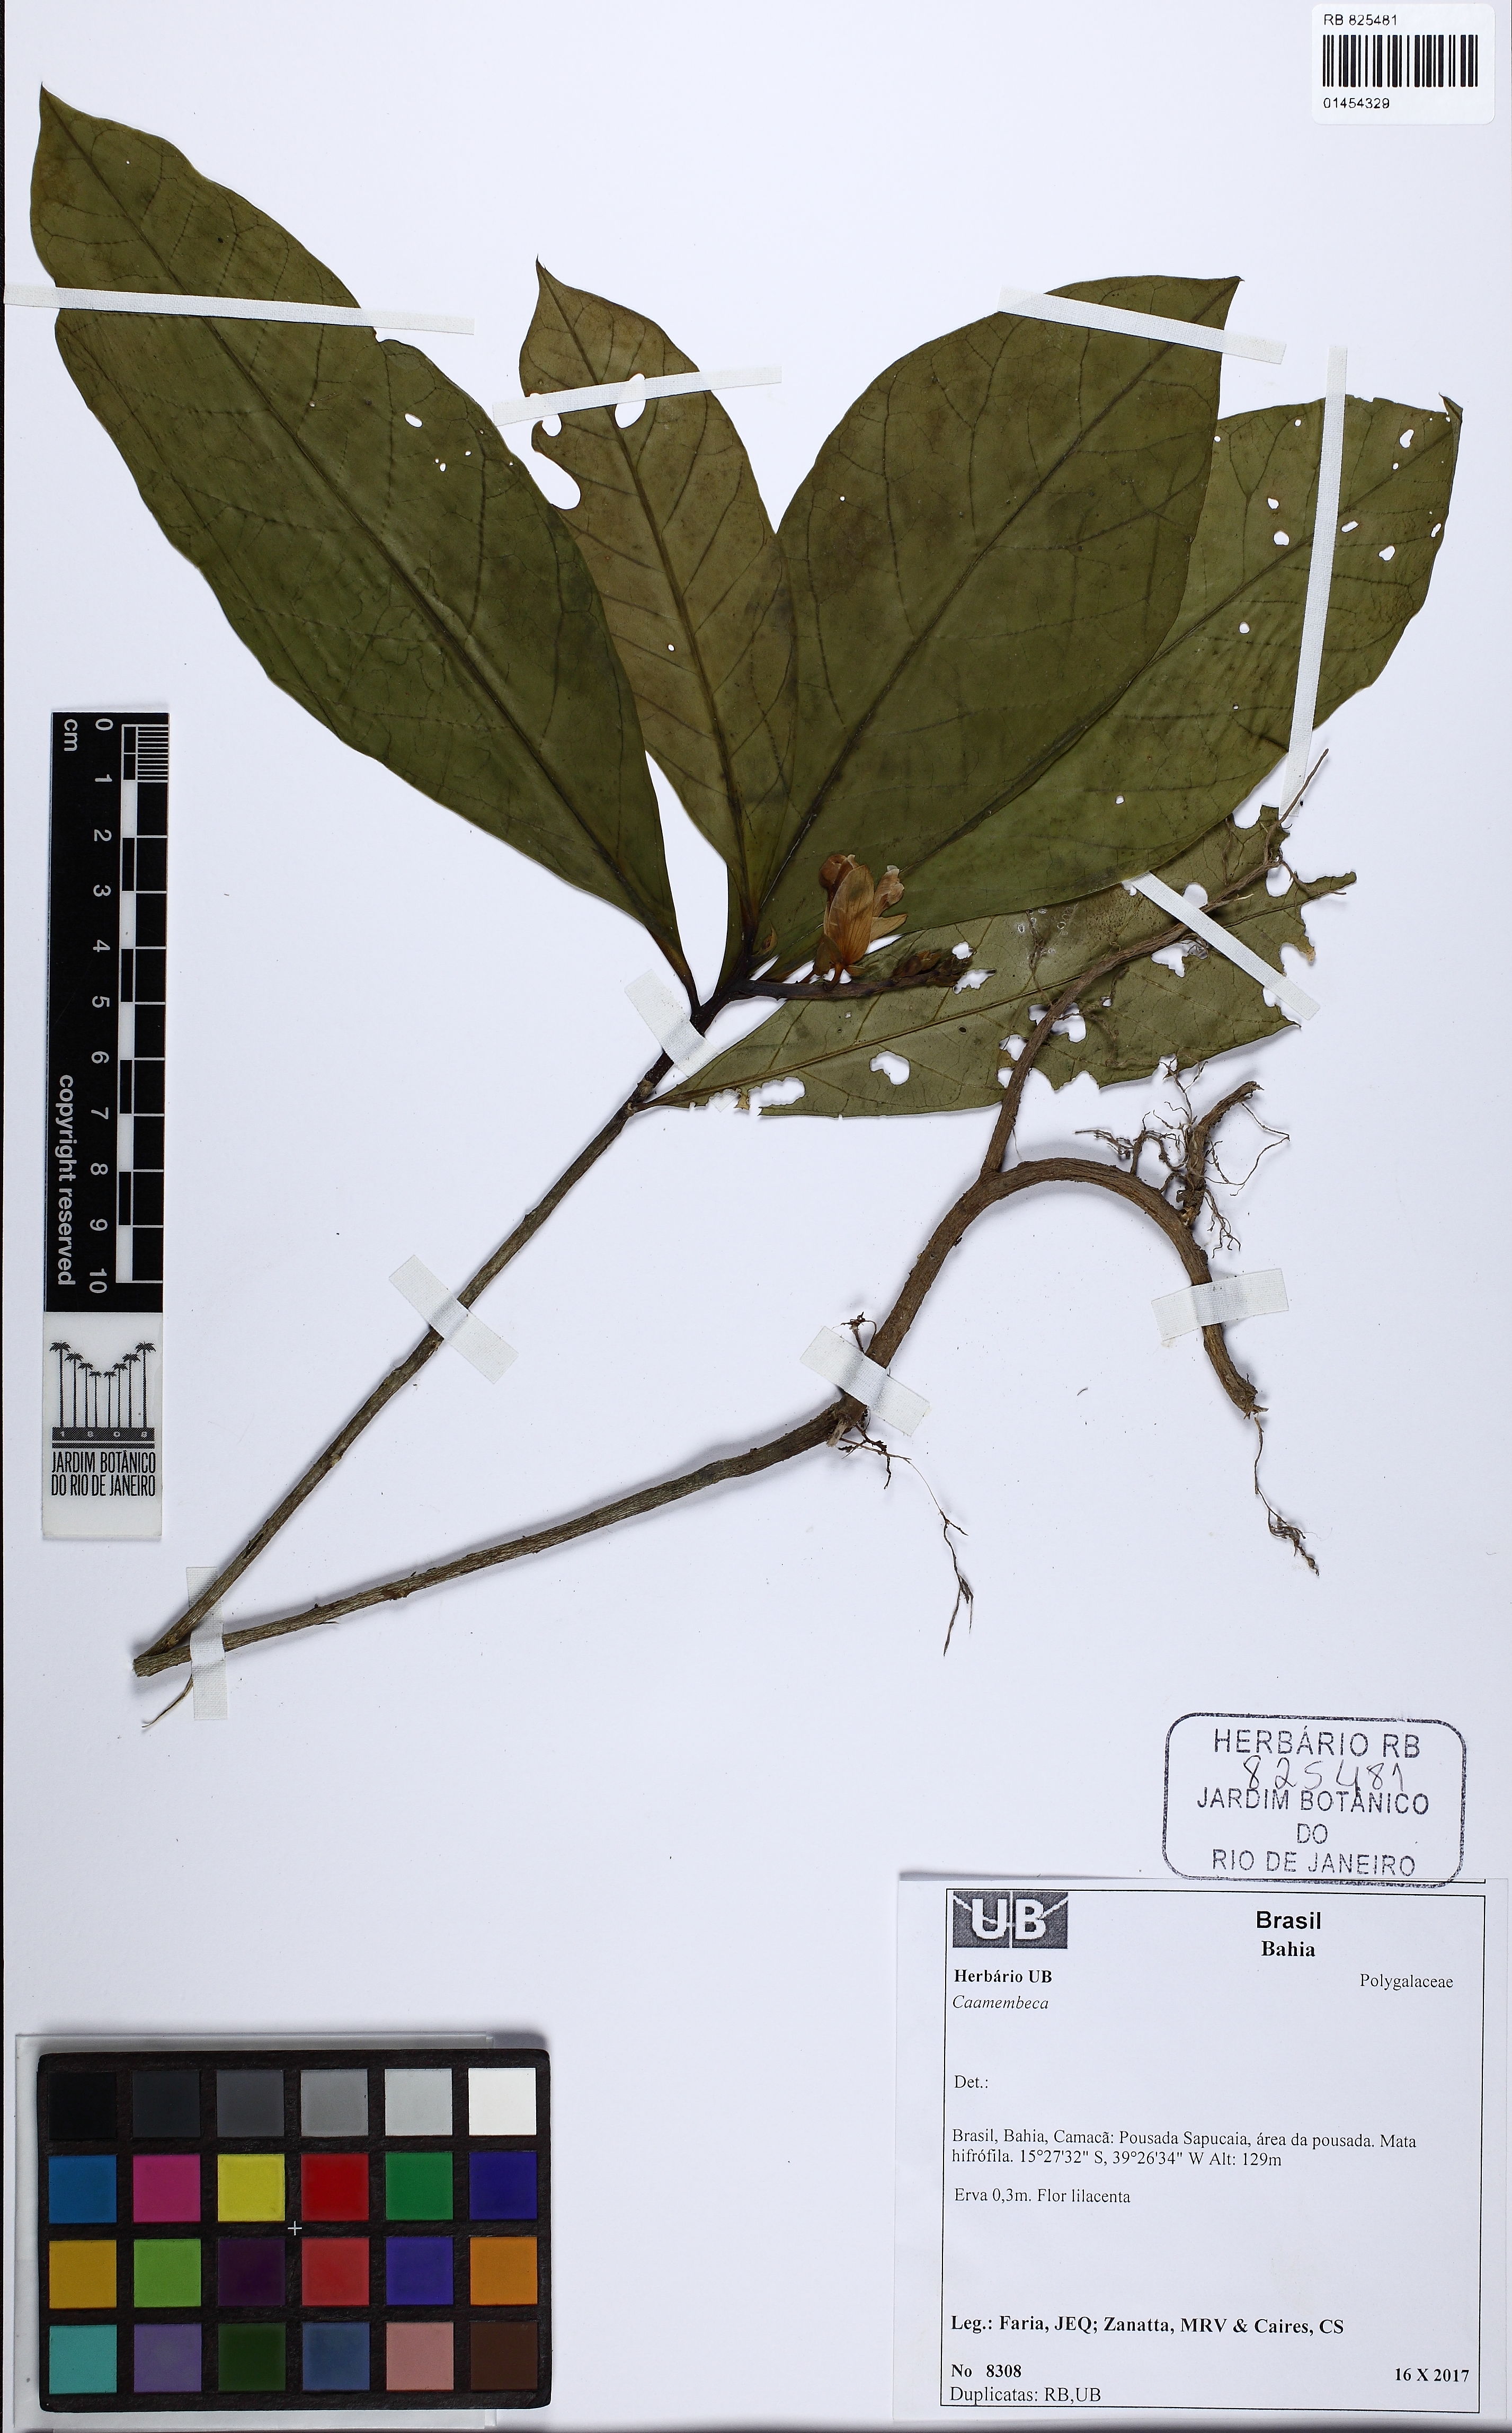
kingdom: Plantae
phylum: Tracheophyta
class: Magnoliopsida
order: Fabales
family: Polygalaceae
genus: Caamembeca
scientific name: Caamembeca
